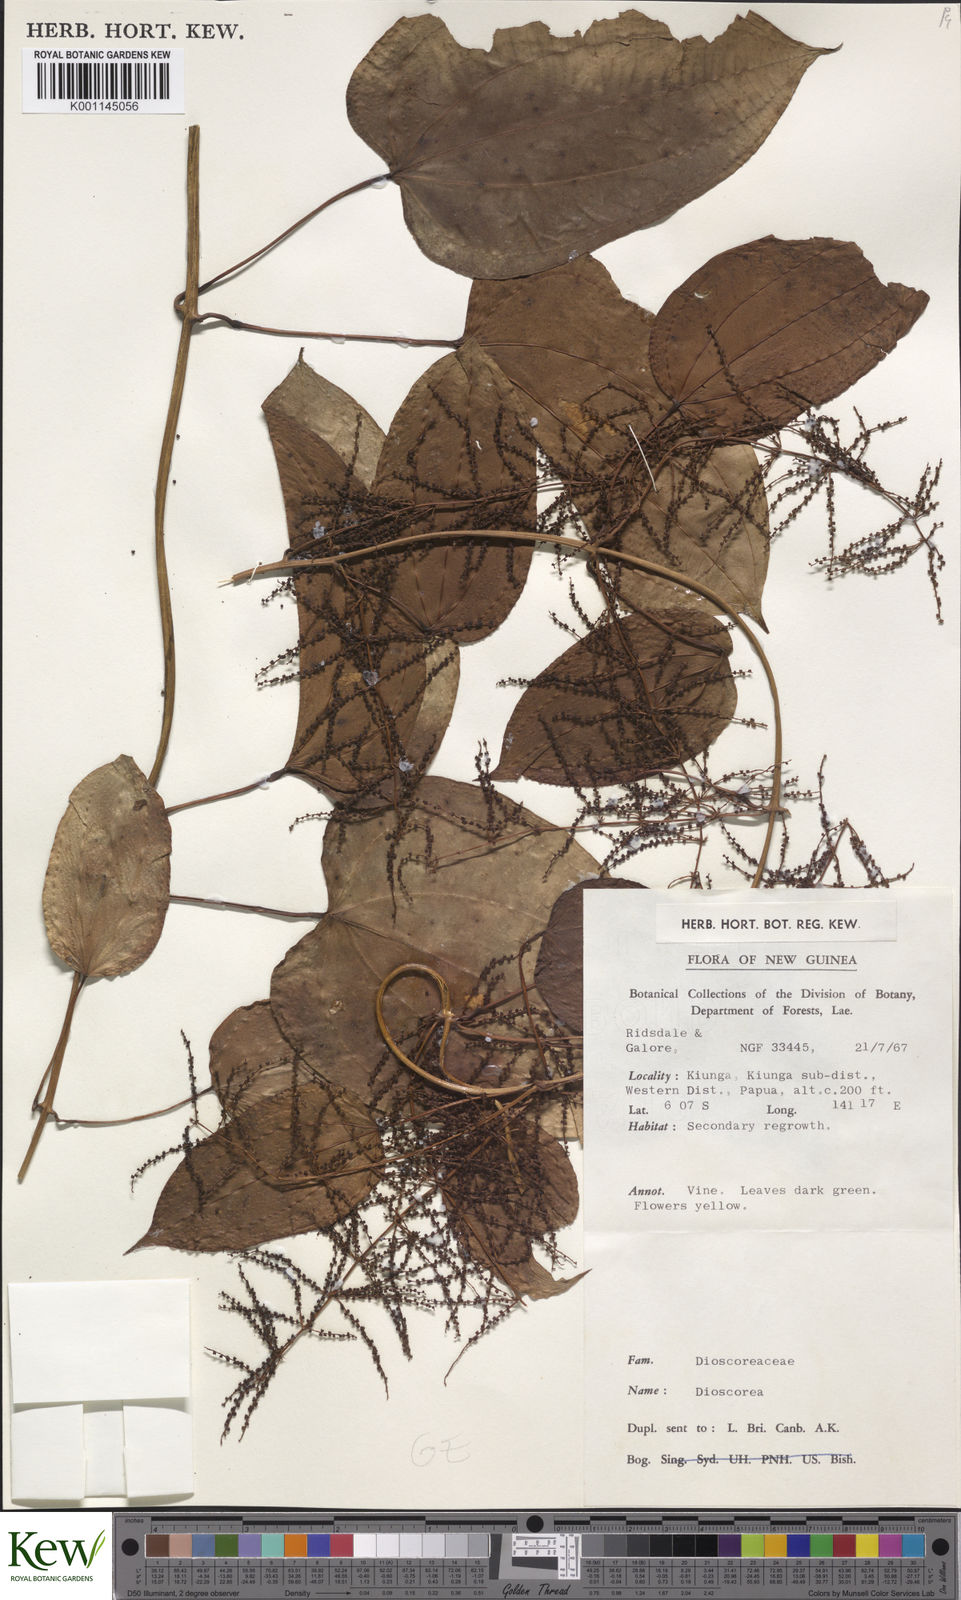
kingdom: Plantae
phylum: Tracheophyta
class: Liliopsida
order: Dioscoreales
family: Dioscoreaceae
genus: Dioscorea
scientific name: Dioscorea
